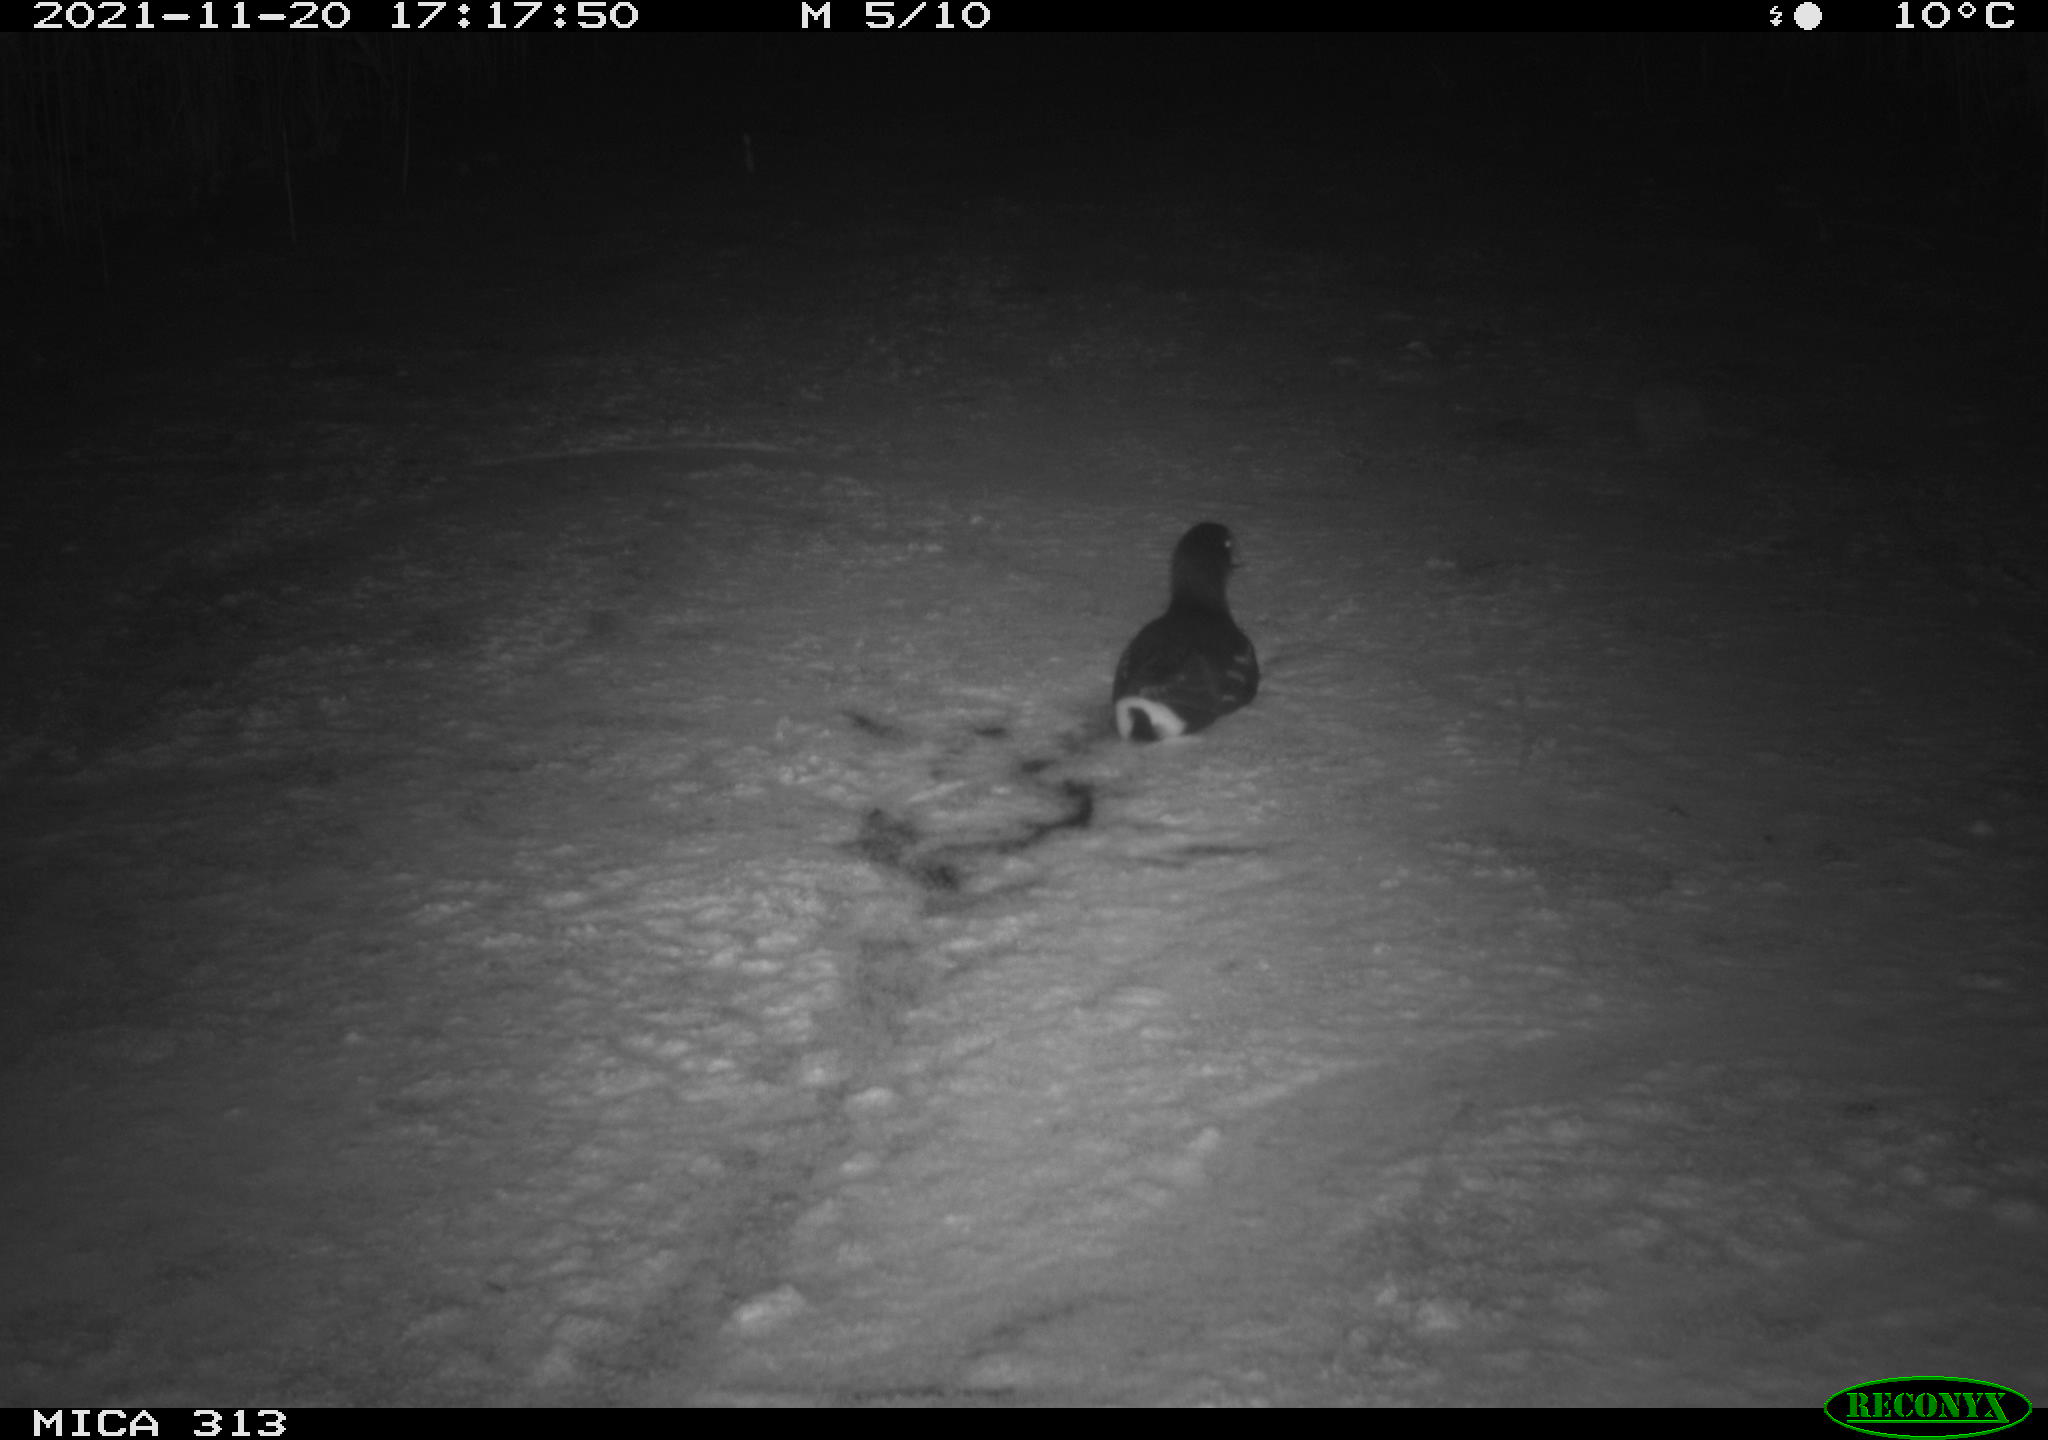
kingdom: Animalia
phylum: Chordata
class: Aves
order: Gruiformes
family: Rallidae
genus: Gallinula
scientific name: Gallinula chloropus
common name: Common moorhen
